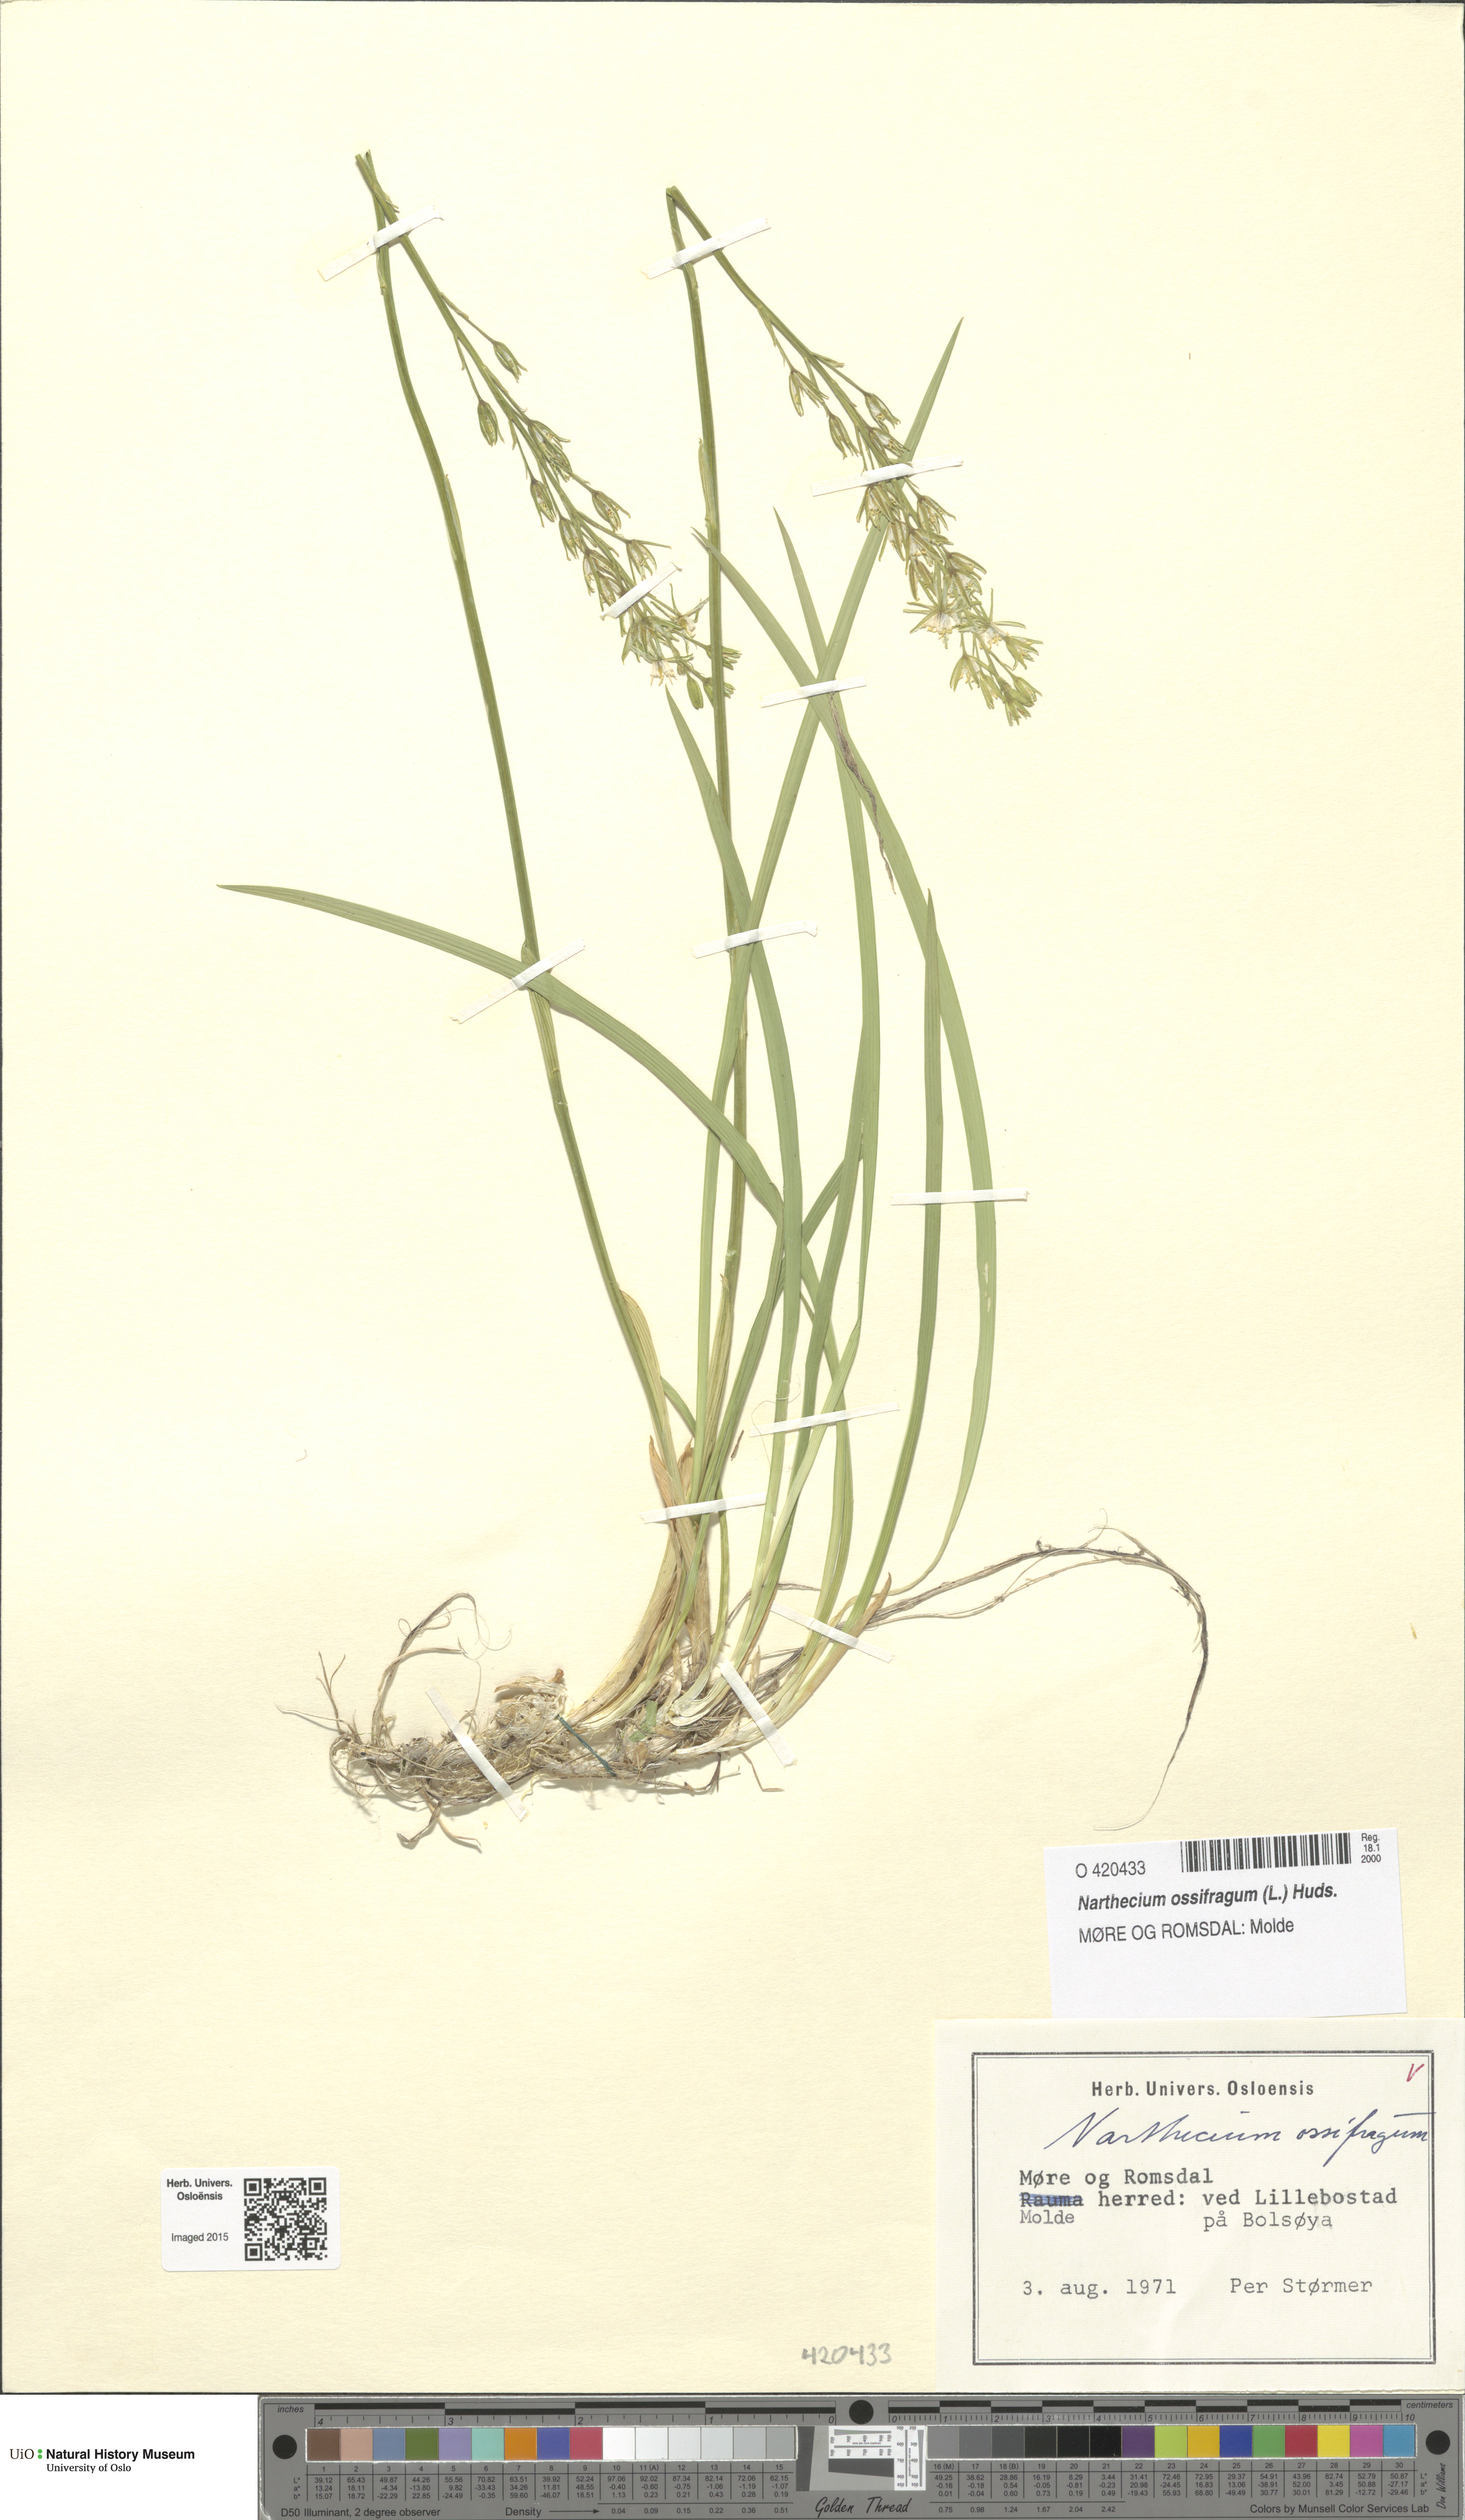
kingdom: Plantae
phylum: Tracheophyta
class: Liliopsida
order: Dioscoreales
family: Nartheciaceae
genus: Narthecium
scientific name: Narthecium ossifragum
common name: Bog asphodel
